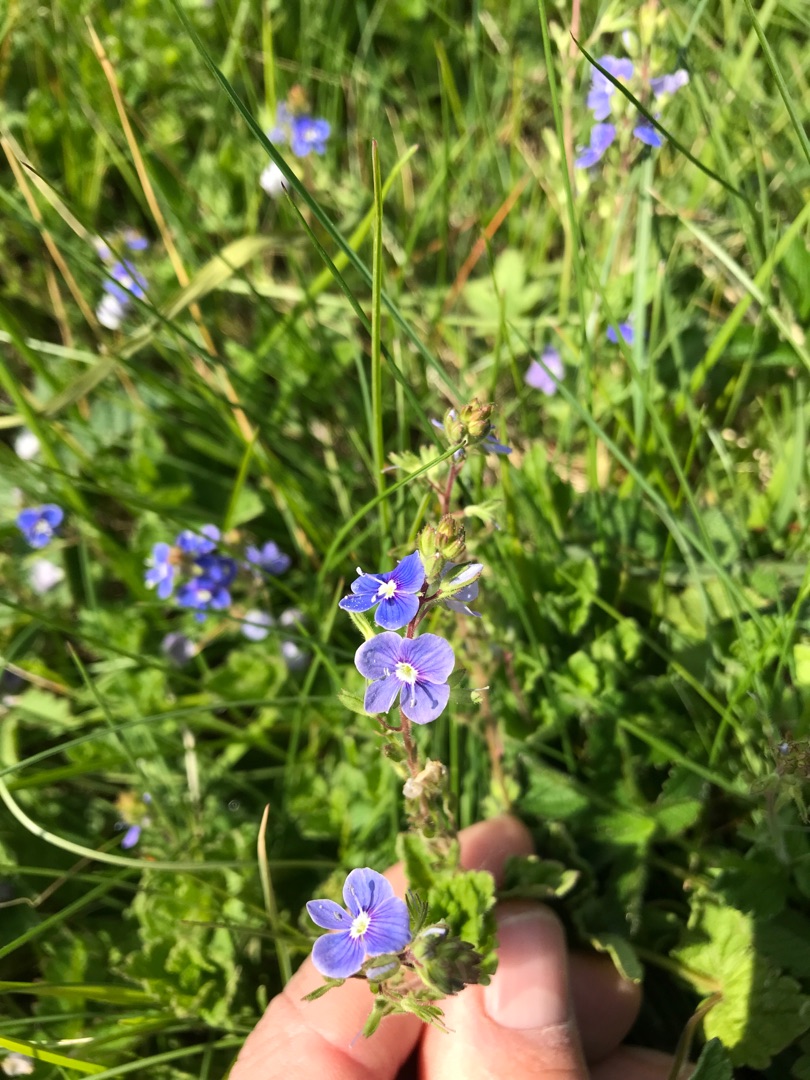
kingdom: Plantae
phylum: Tracheophyta
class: Magnoliopsida
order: Lamiales
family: Plantaginaceae
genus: Veronica
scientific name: Veronica chamaedrys
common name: Tveskægget ærenpris
